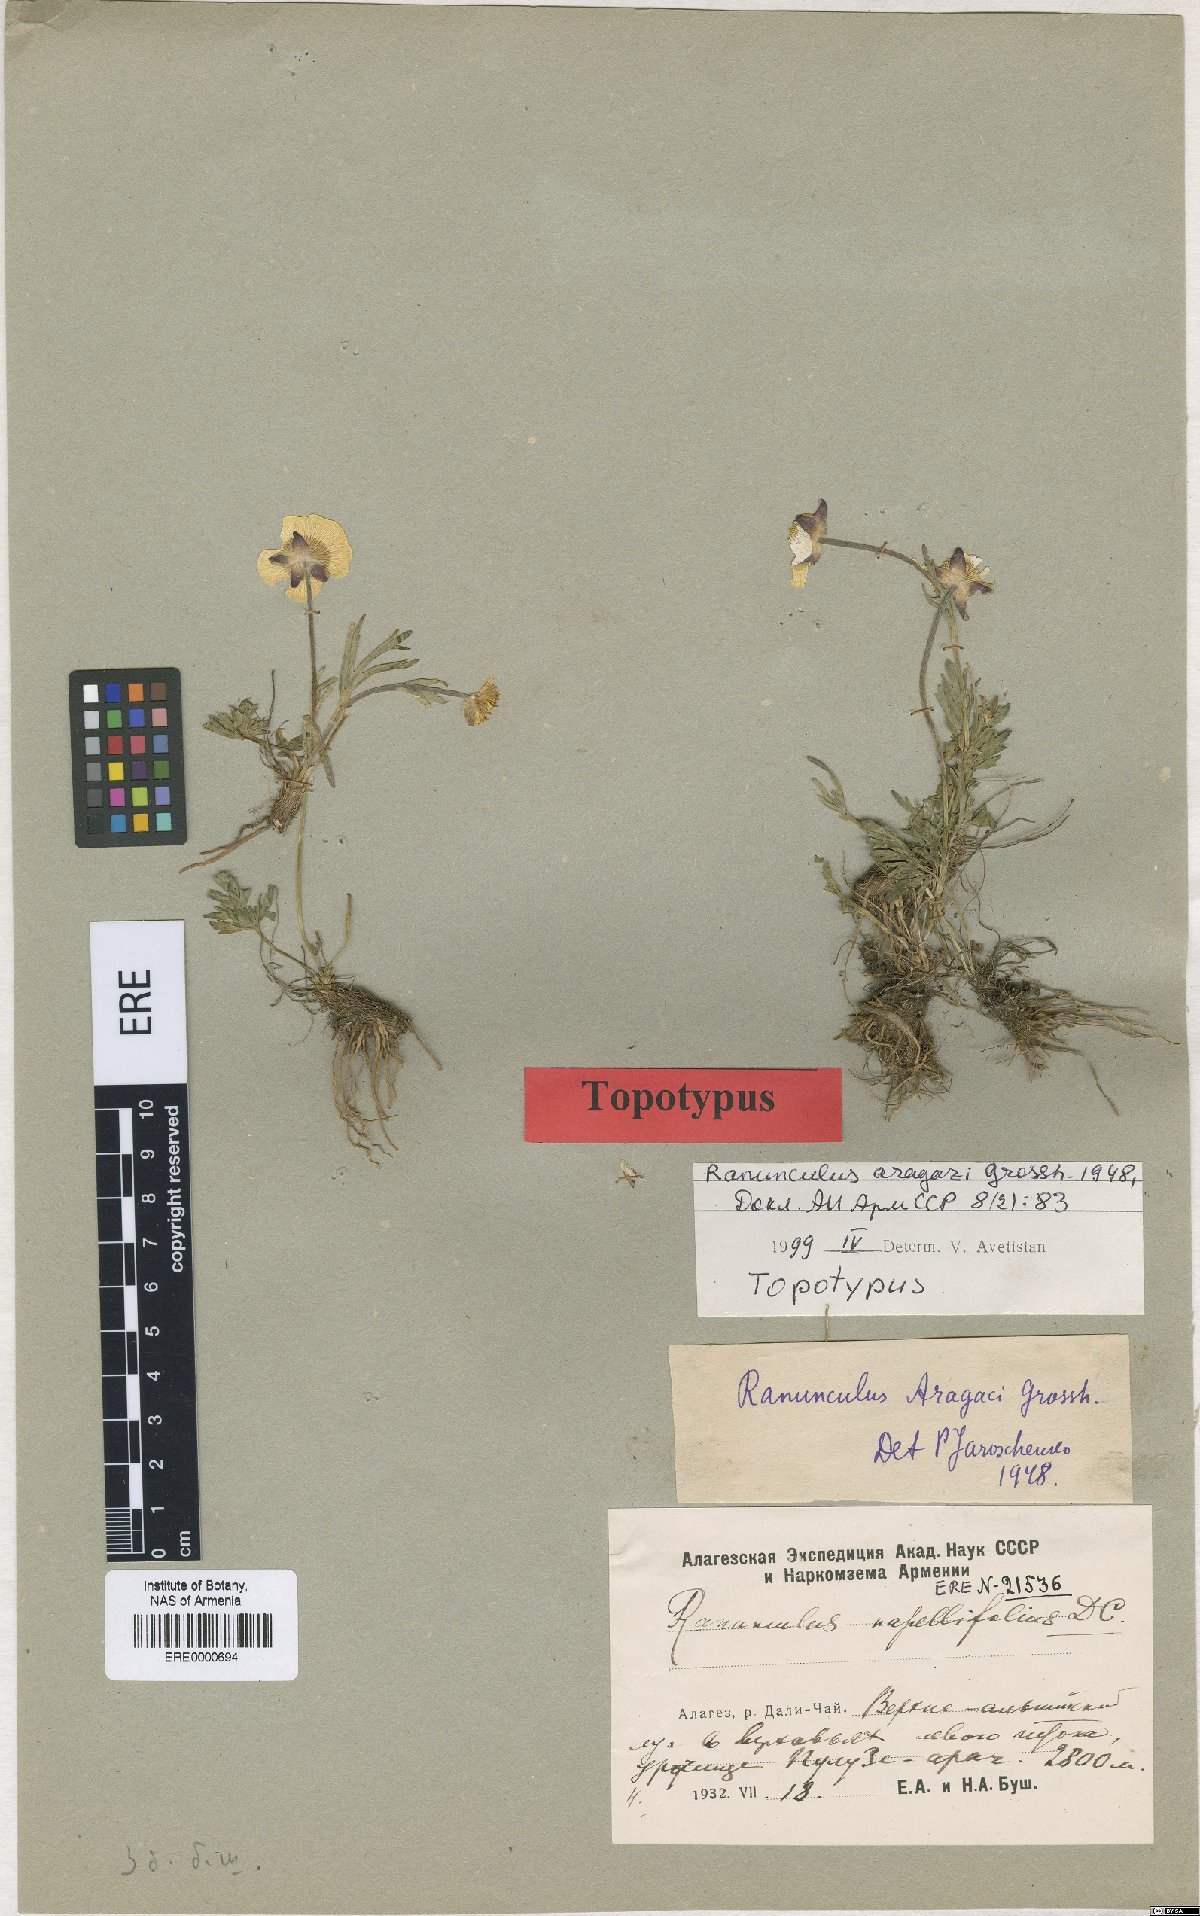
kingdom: Plantae
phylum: Tracheophyta
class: Magnoliopsida
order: Ranunculales
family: Ranunculaceae
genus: Ranunculus
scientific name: Ranunculus dissectus
